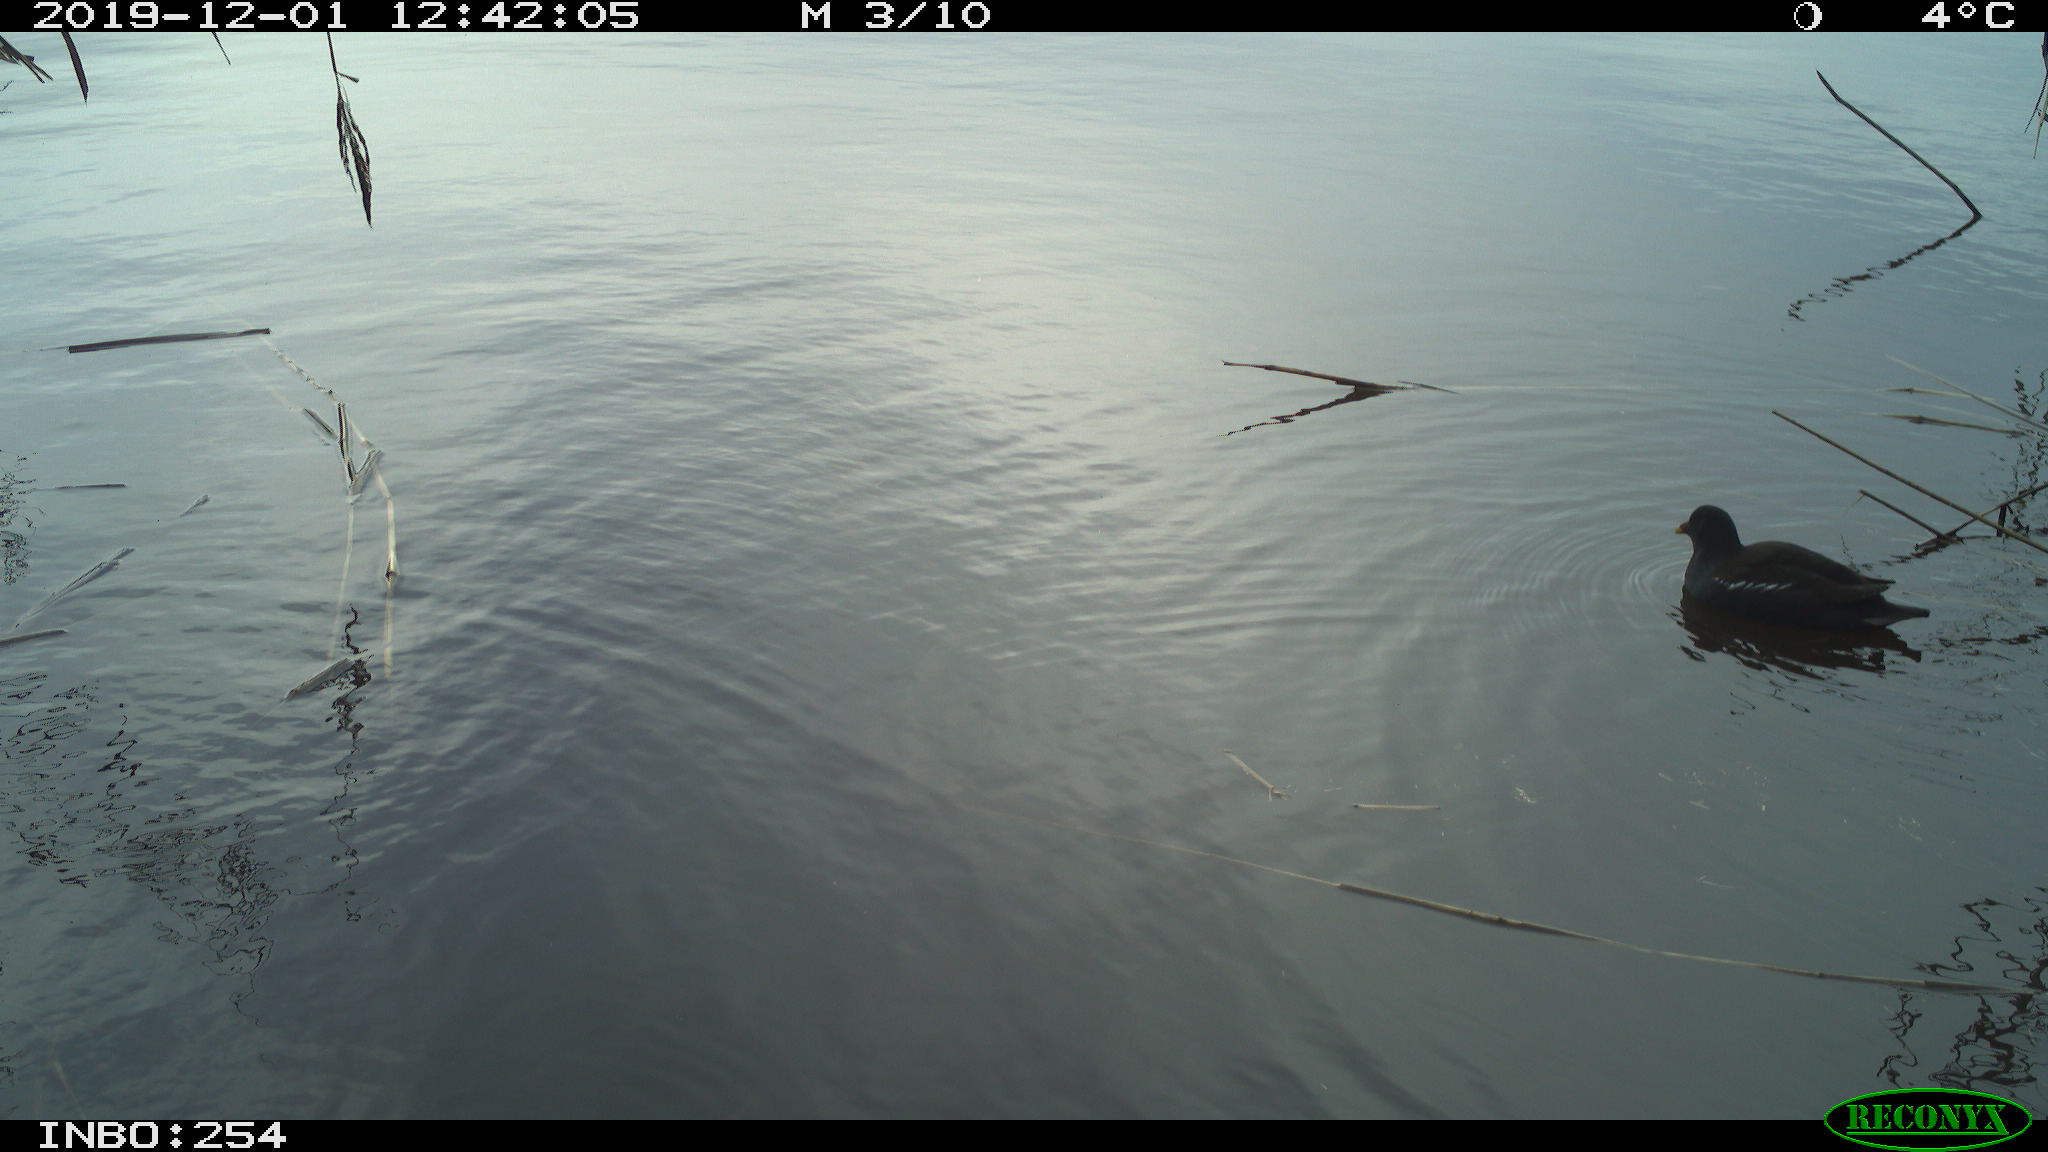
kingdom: Animalia
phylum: Chordata
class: Aves
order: Gruiformes
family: Rallidae
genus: Gallinula
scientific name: Gallinula chloropus
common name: Common moorhen
